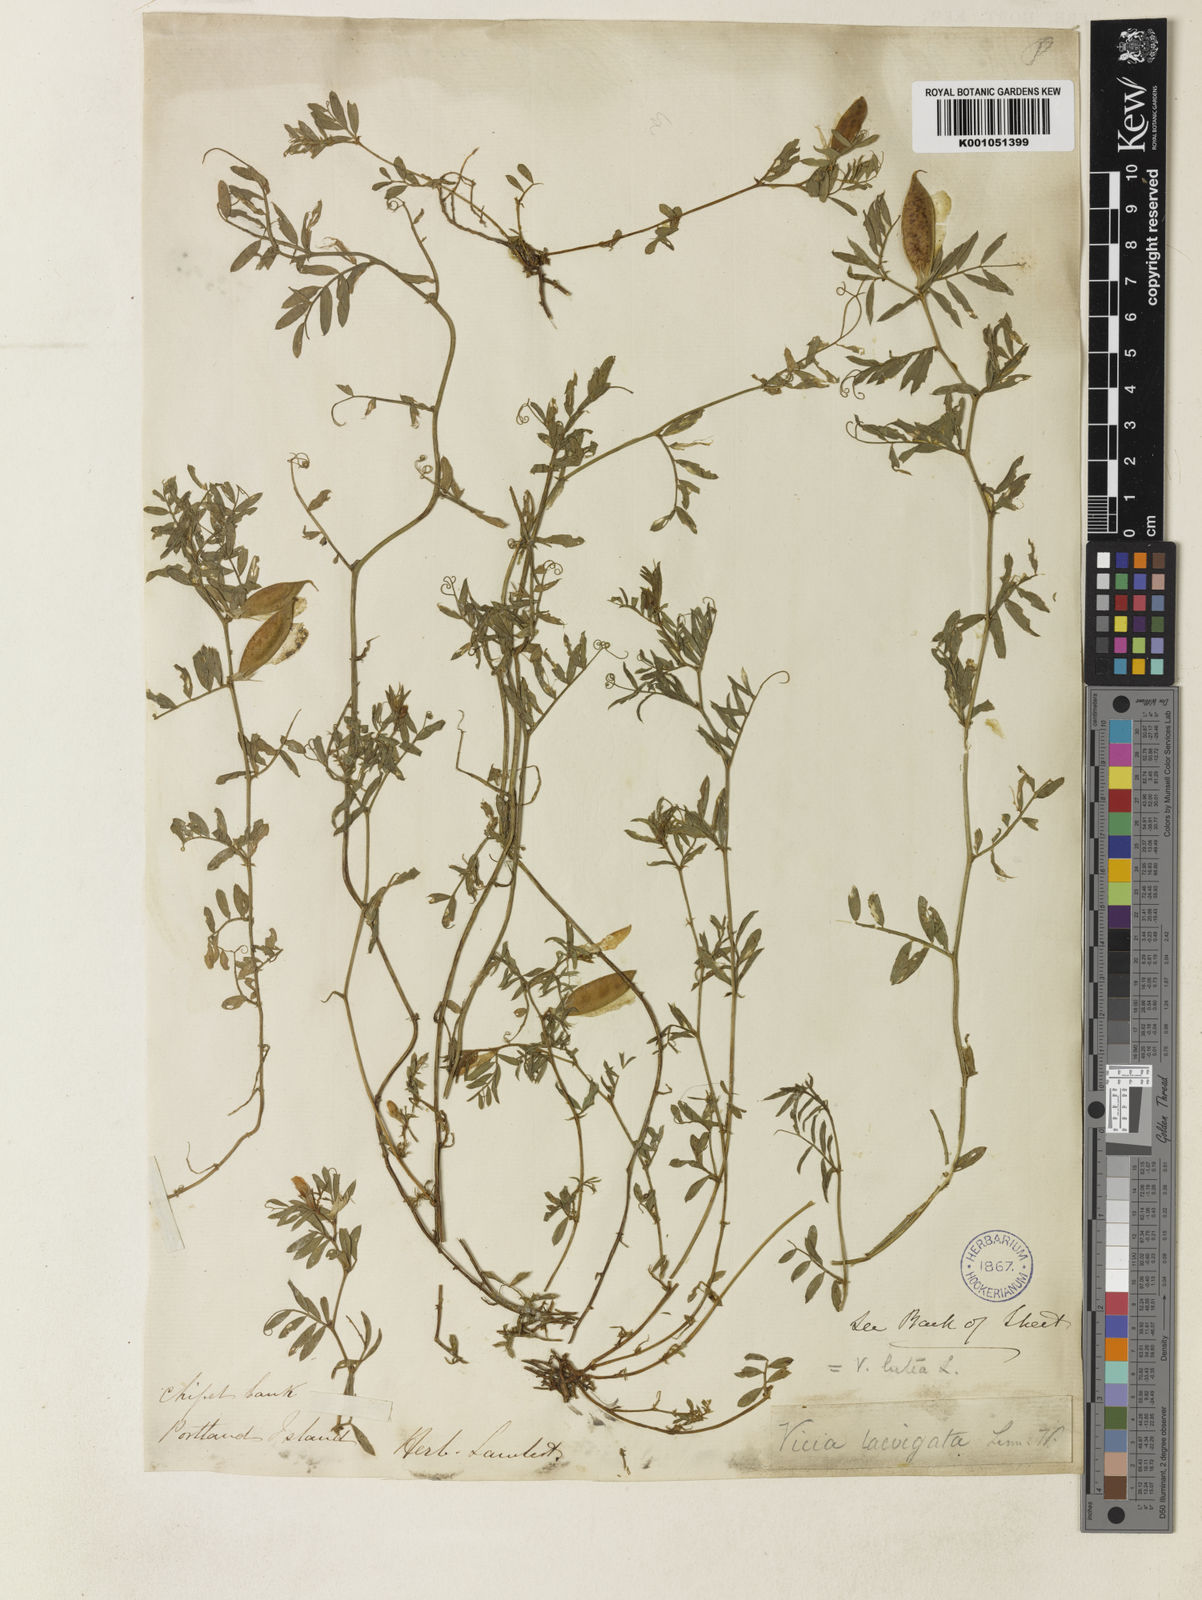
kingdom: Plantae
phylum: Tracheophyta
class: Magnoliopsida
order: Fabales
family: Fabaceae
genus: Vicia
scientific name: Vicia lutea
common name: Smooth yellow vetch
